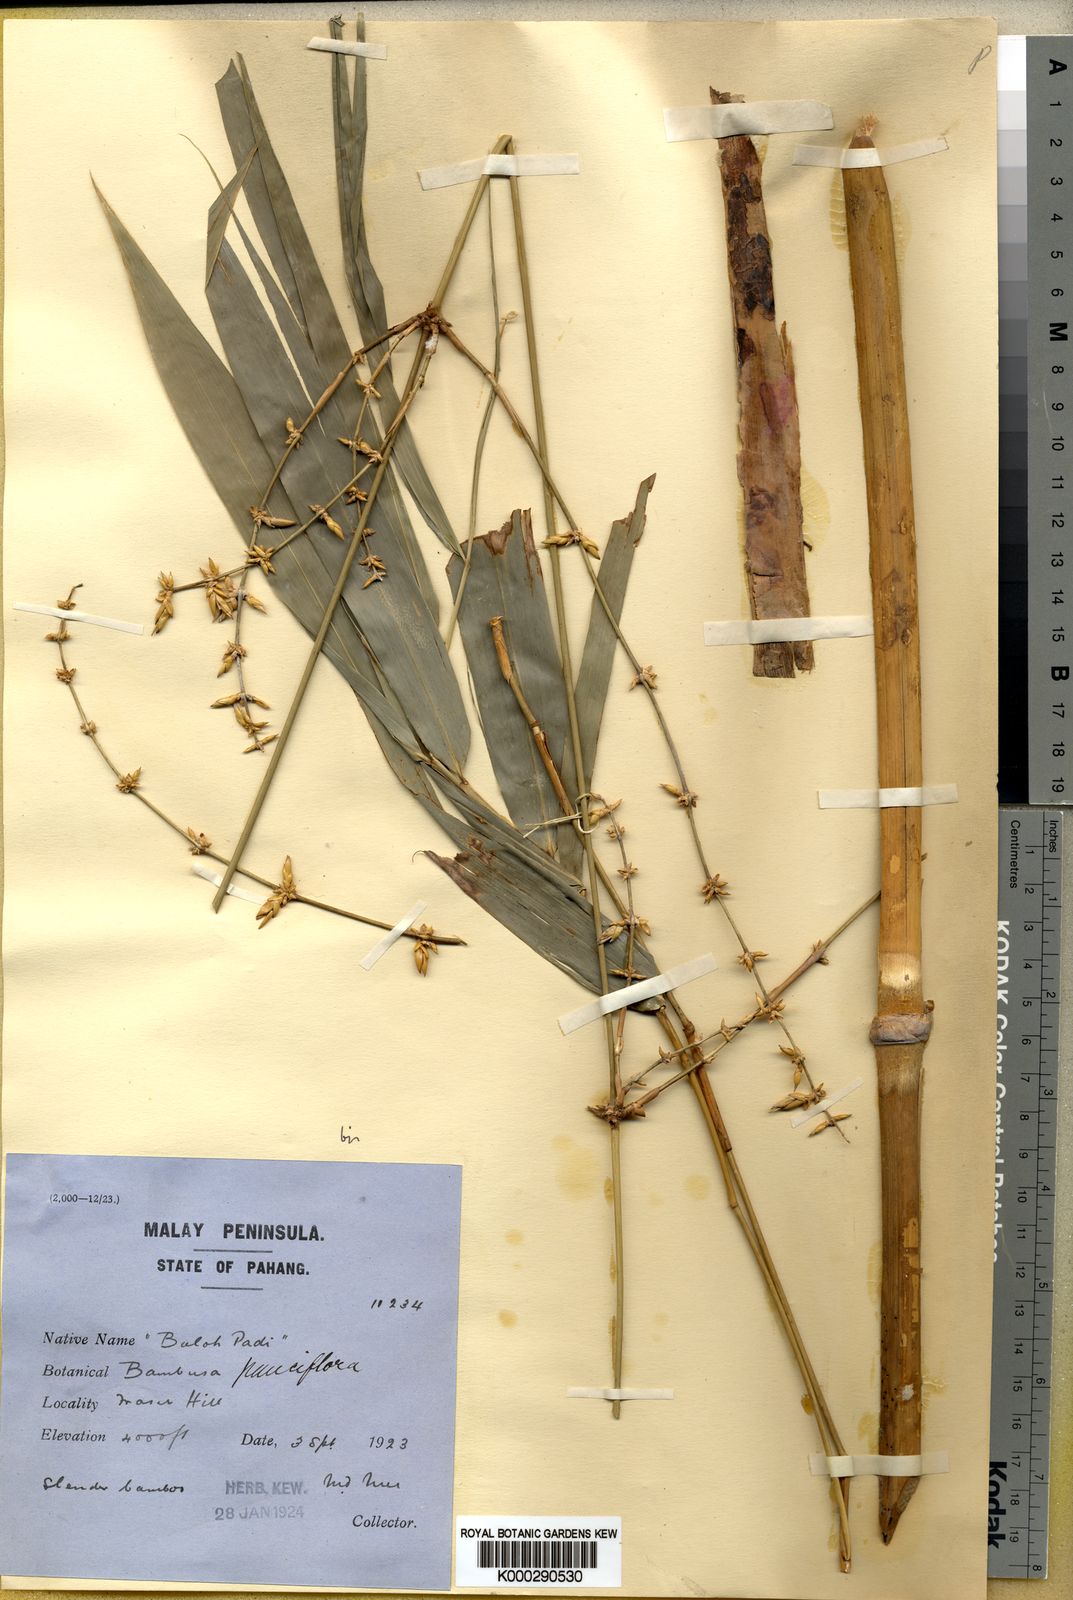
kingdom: Plantae
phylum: Tracheophyta
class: Liliopsida
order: Poales
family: Poaceae
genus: Dendrocalamus
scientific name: Dendrocalamus hirtellus
